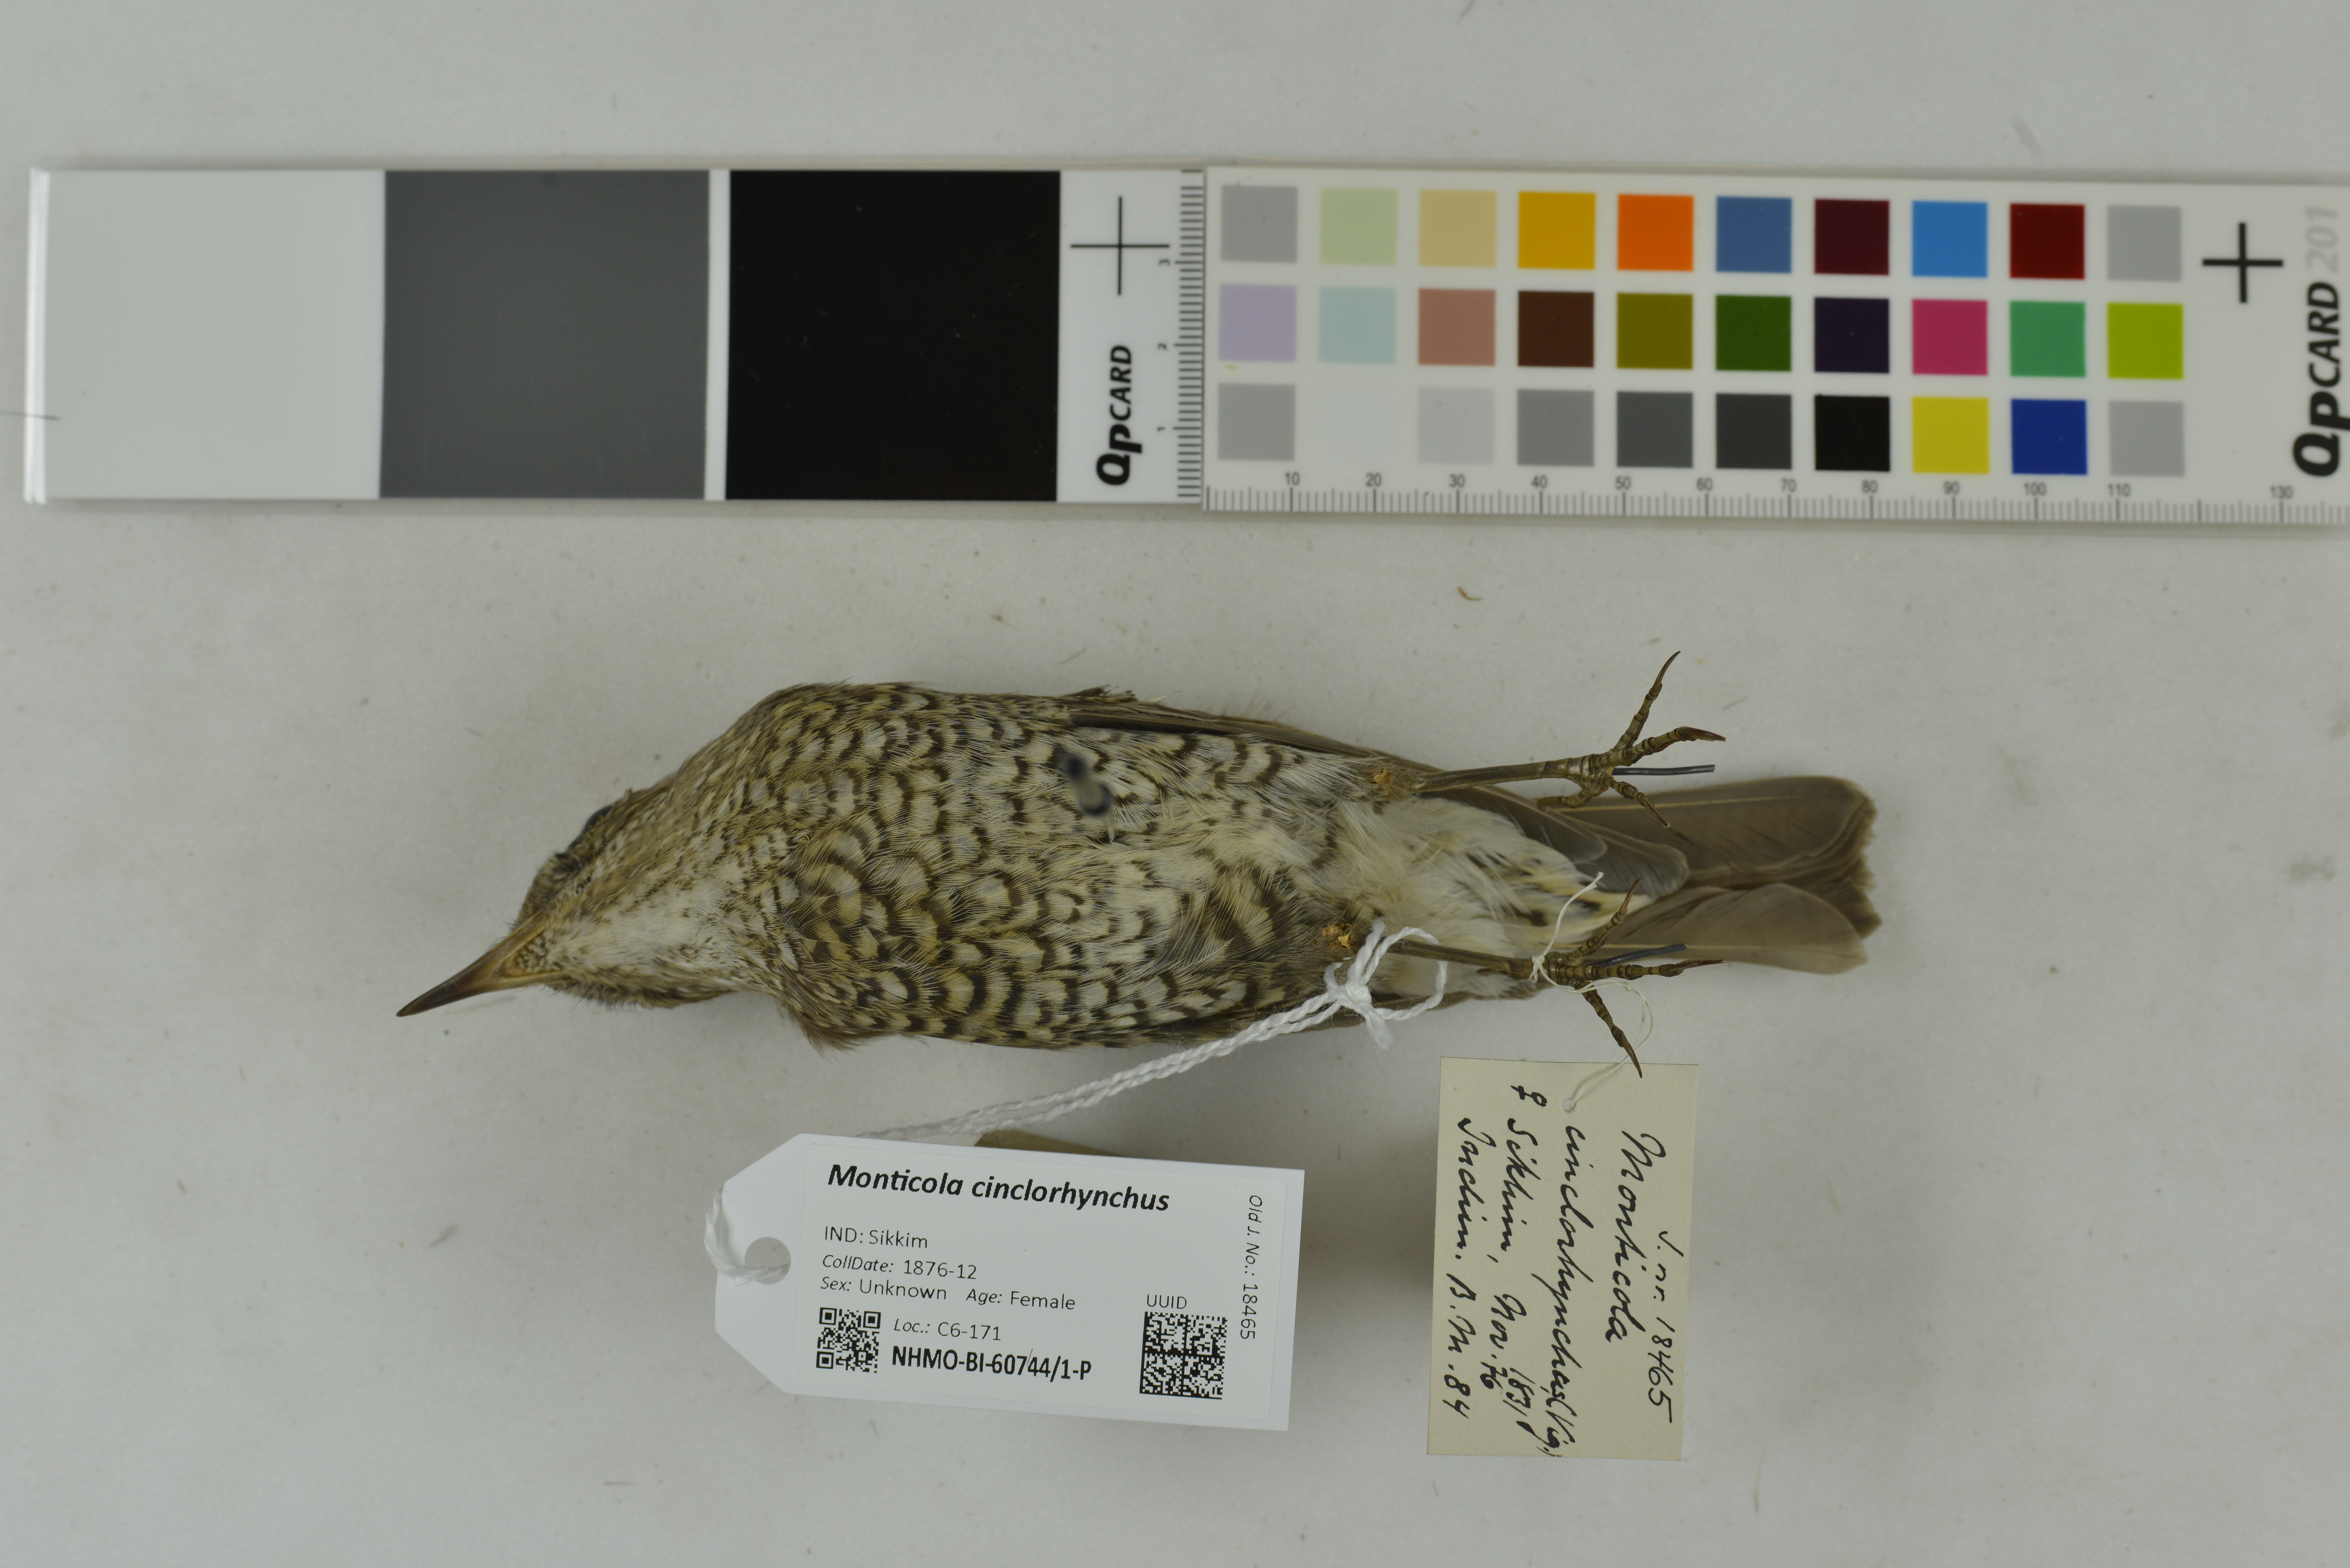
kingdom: Animalia
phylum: Chordata
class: Aves
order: Passeriformes
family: Muscicapidae
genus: Monticola
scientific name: Monticola cinclorhynchus
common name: Blue-capped rock thrush
